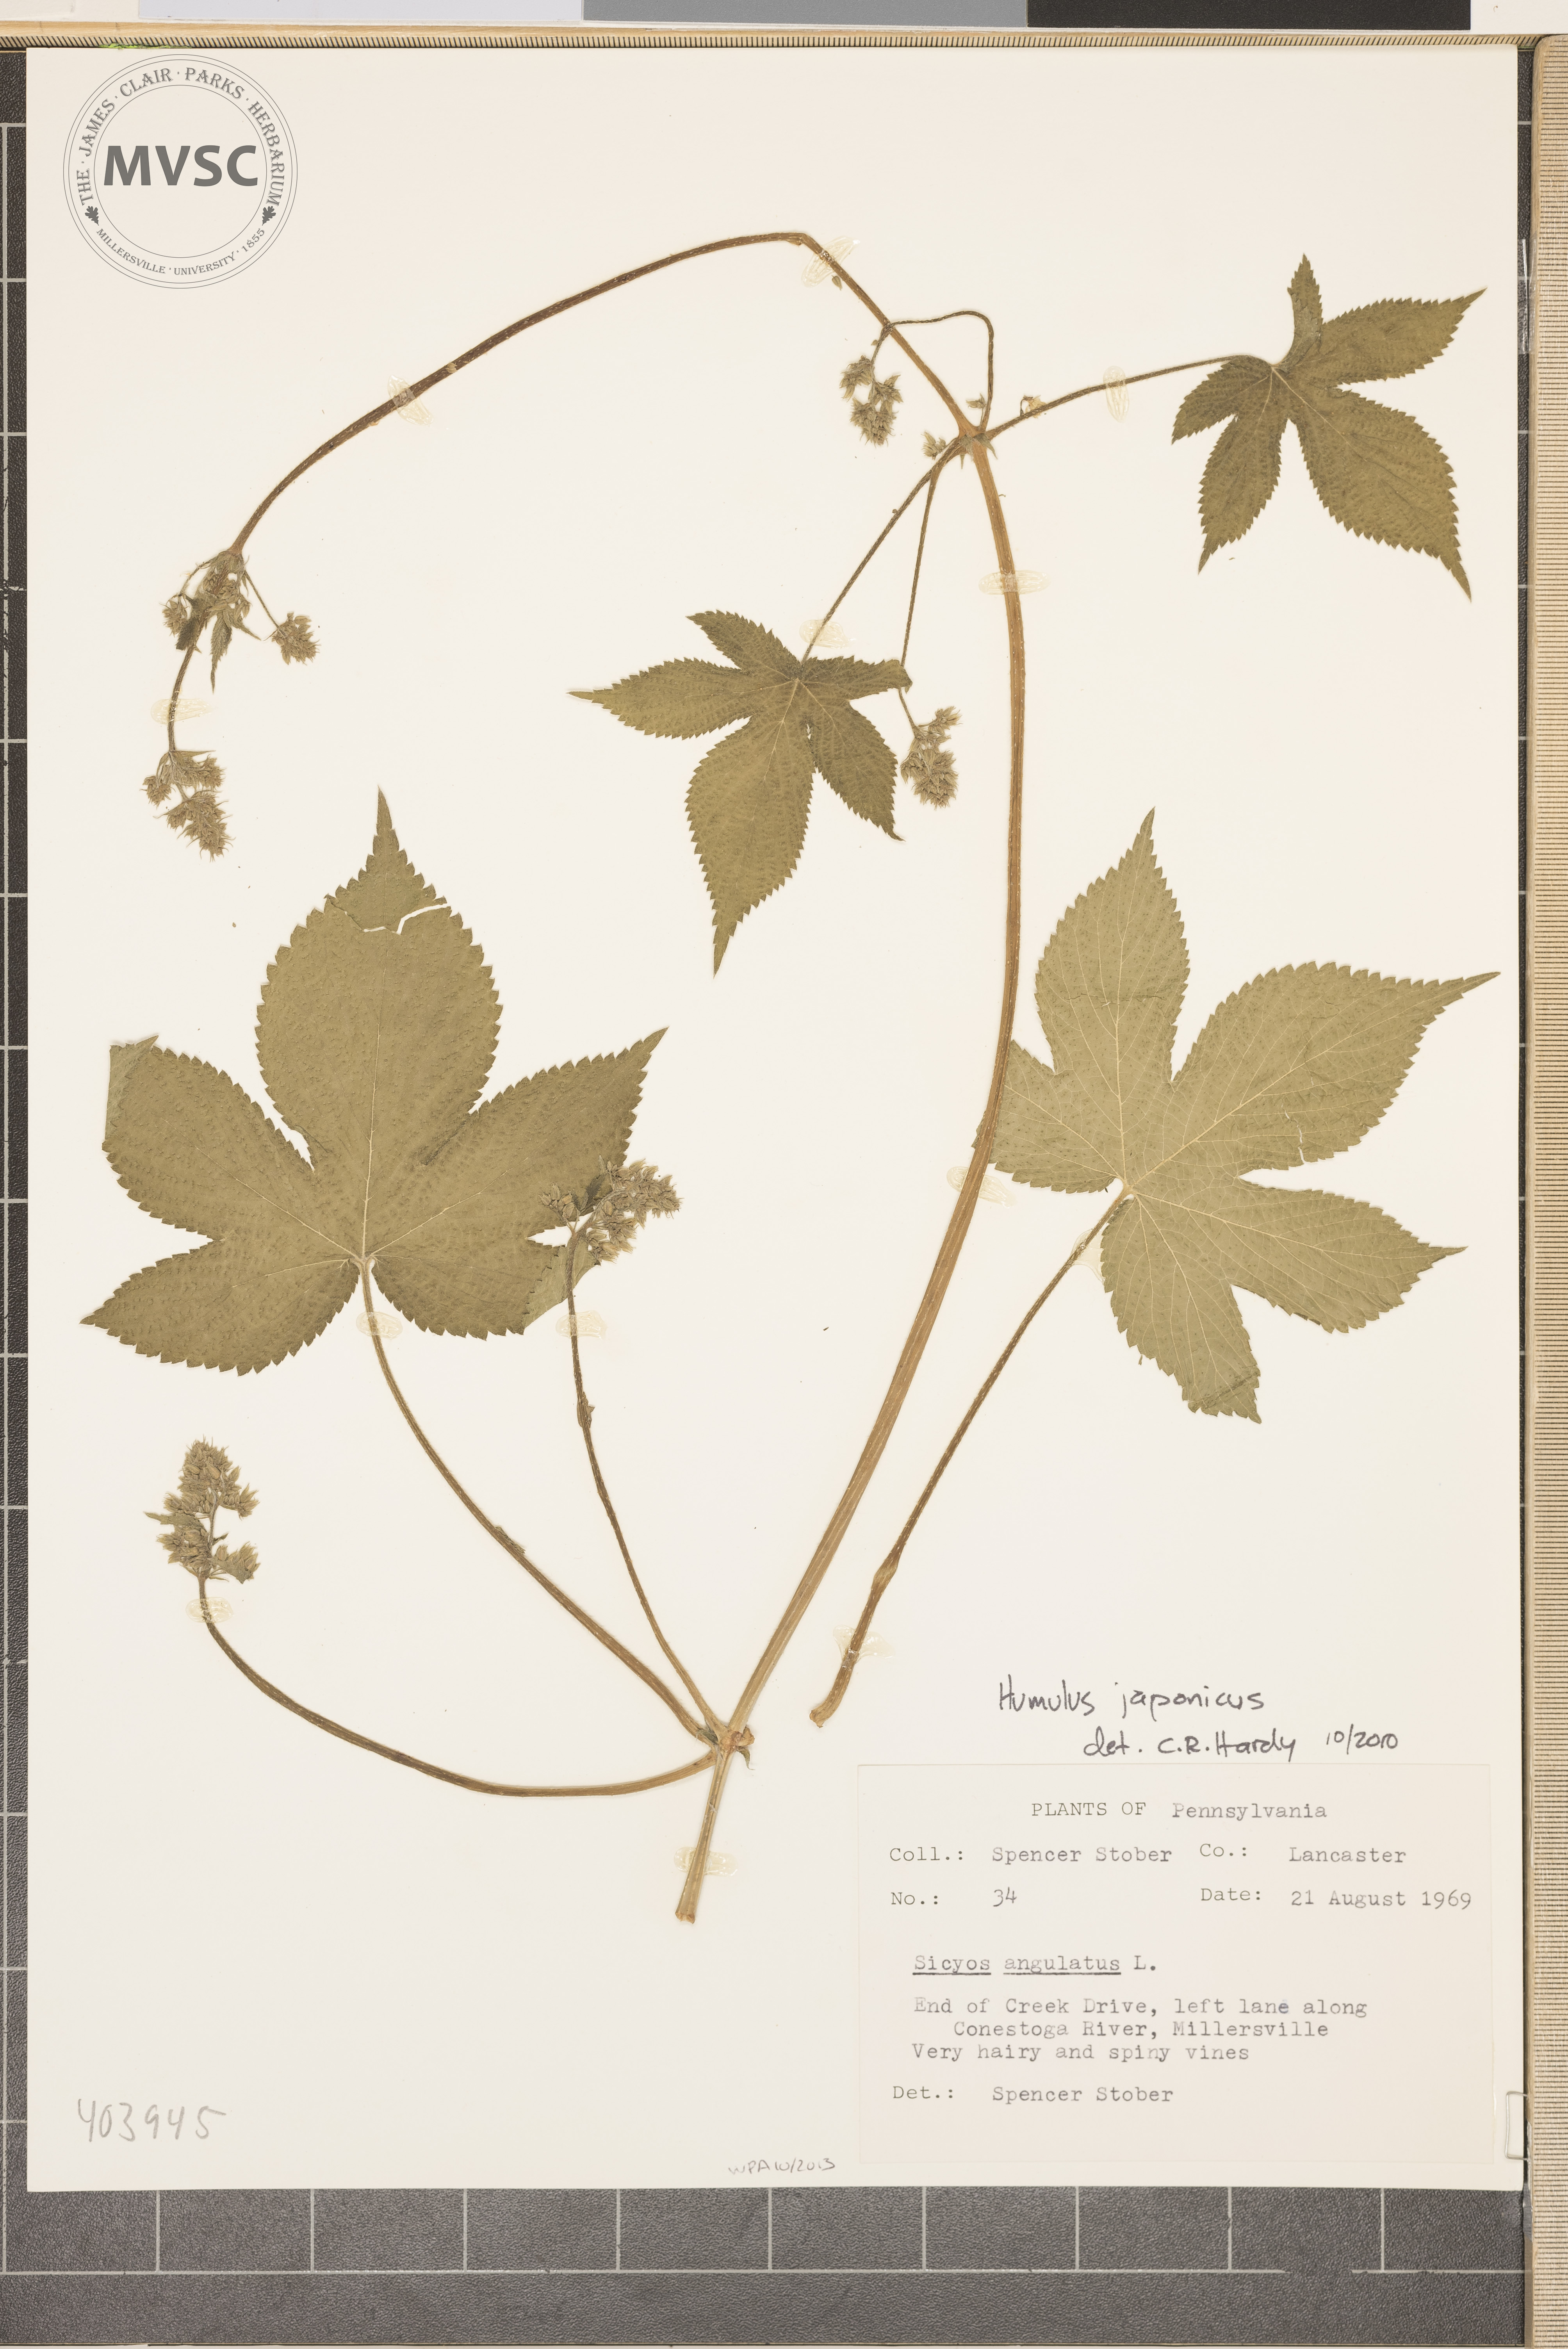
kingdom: Plantae
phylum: Tracheophyta
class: Magnoliopsida
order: Rosales
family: Cannabaceae
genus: Humulus
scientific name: Humulus scandens
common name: Japanese hop
